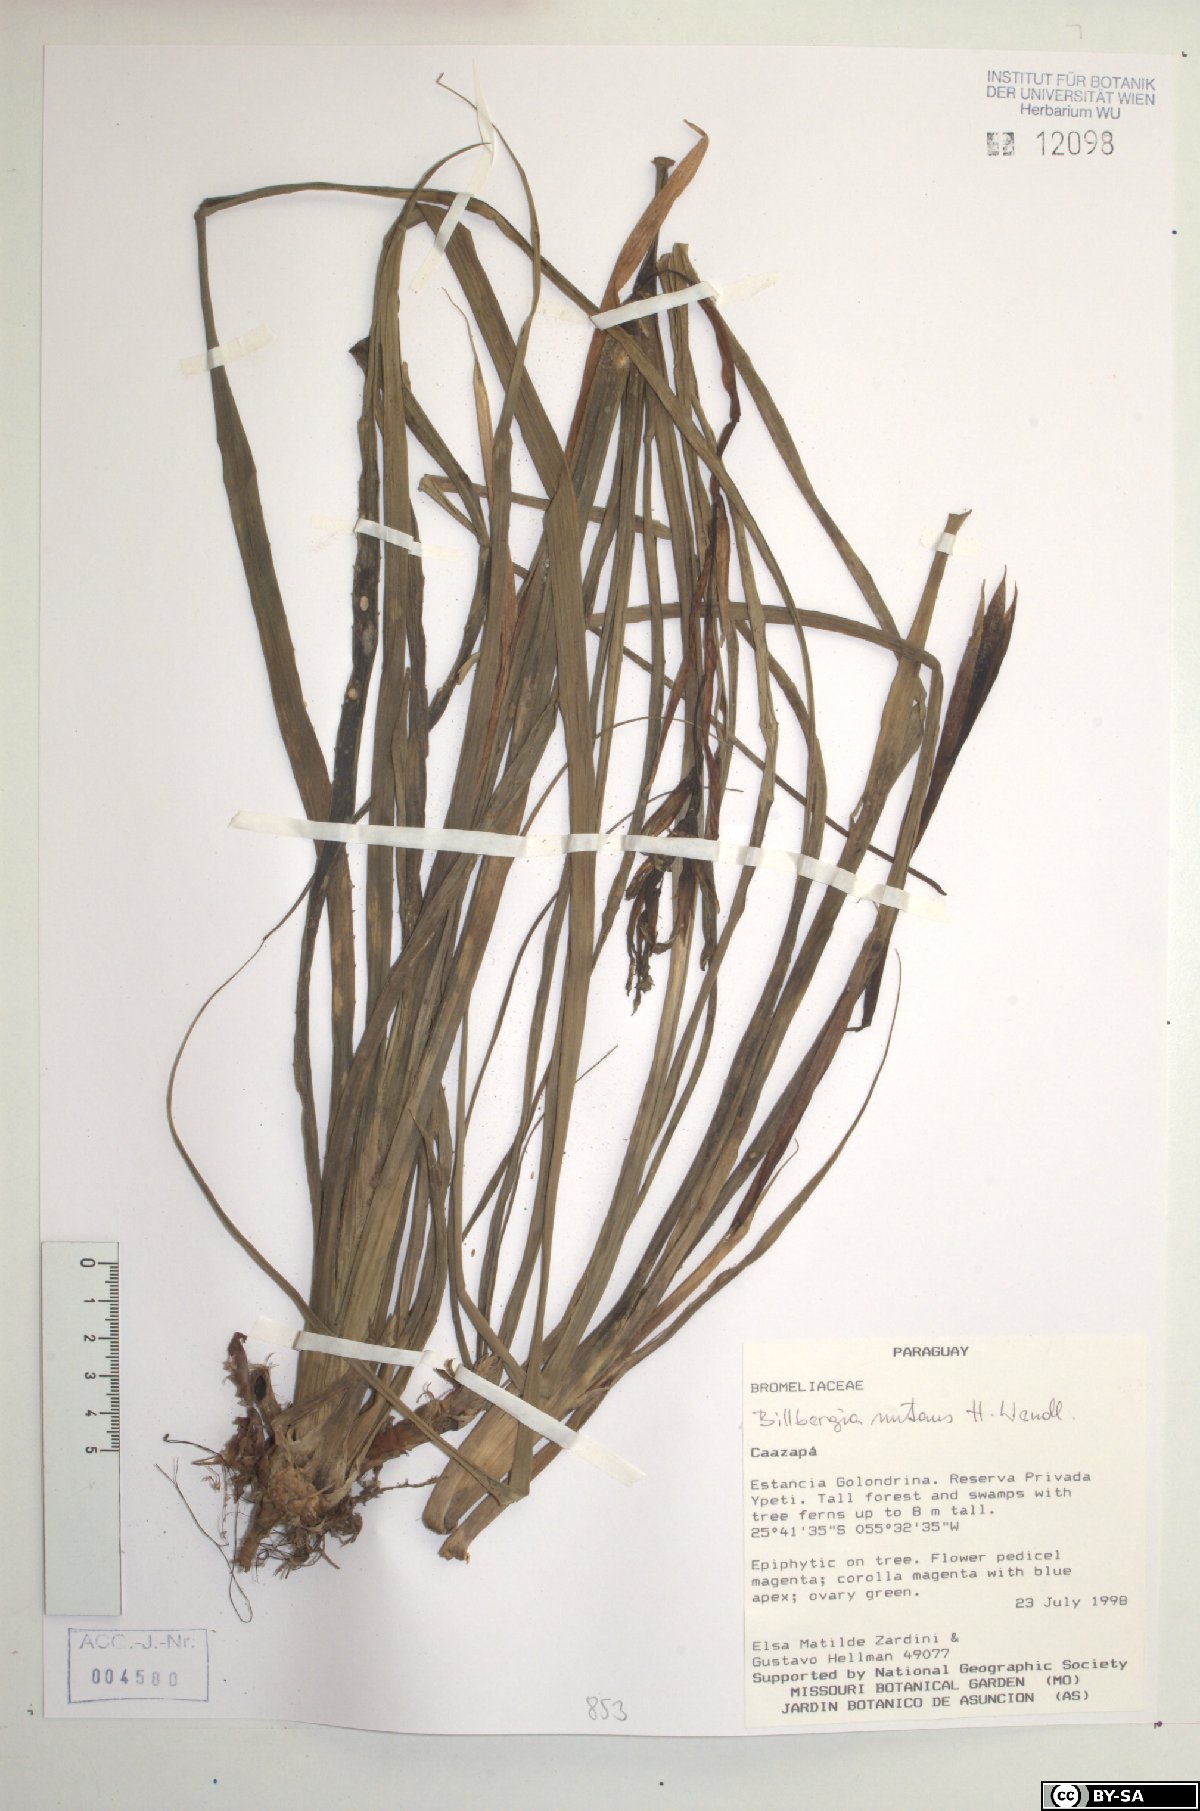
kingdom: Plantae
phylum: Tracheophyta
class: Liliopsida
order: Poales
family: Bromeliaceae
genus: Billbergia
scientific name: Billbergia nutans
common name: Friendship-plant
